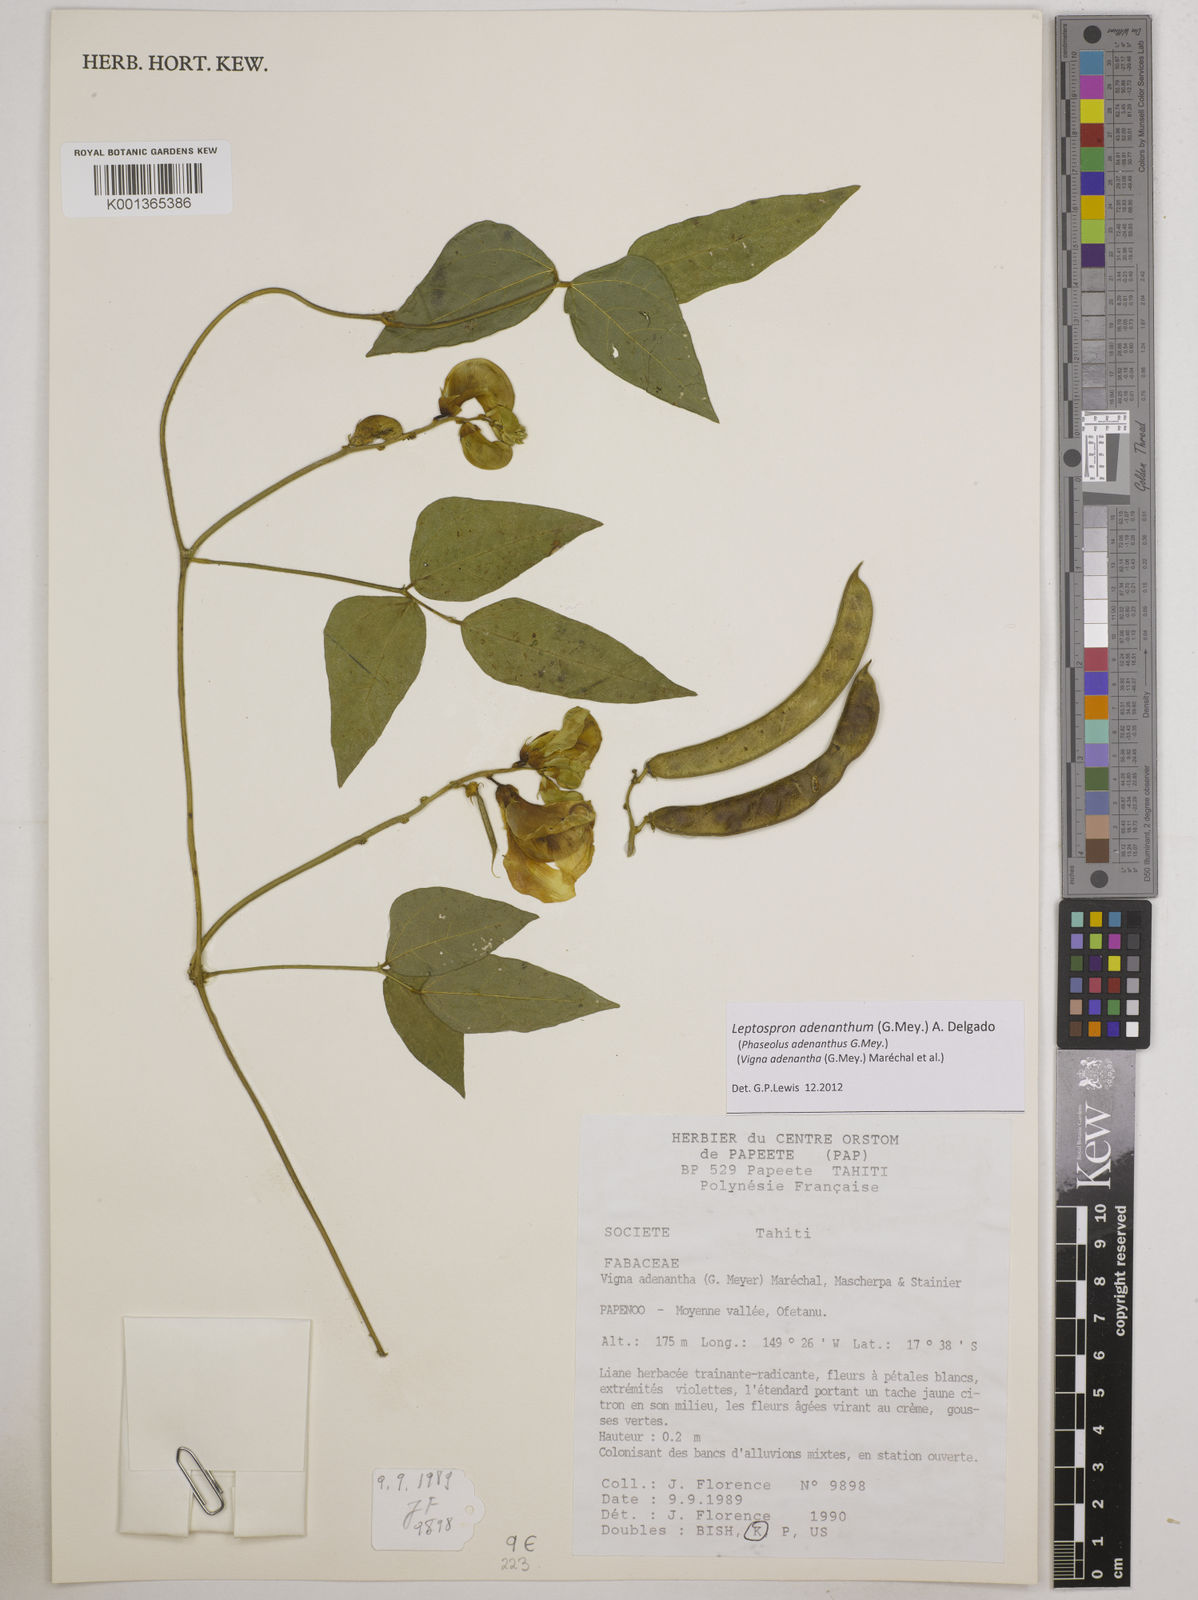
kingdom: Plantae
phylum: Tracheophyta
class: Magnoliopsida
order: Fabales
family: Fabaceae
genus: Leptospron
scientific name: Leptospron adenanthum
